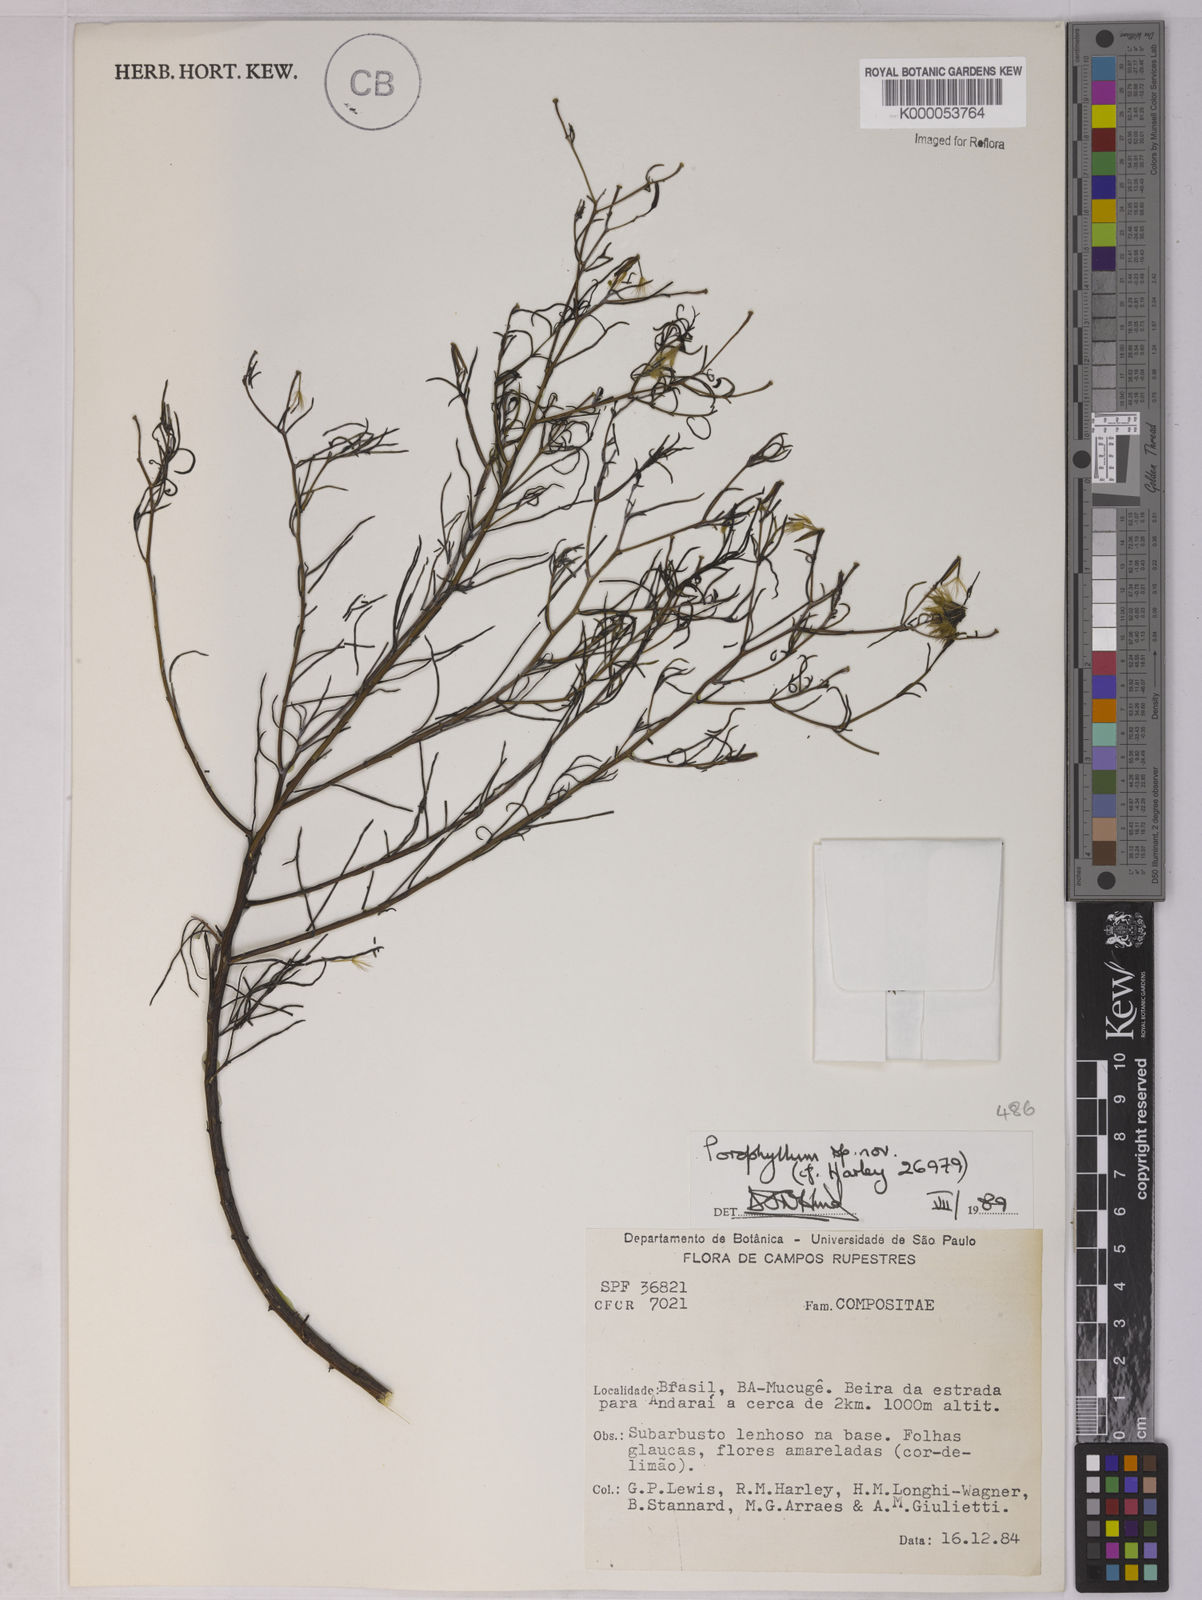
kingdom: Plantae
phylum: Tracheophyta
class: Magnoliopsida
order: Asterales
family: Asteraceae
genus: Porophyllum
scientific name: Porophyllum
